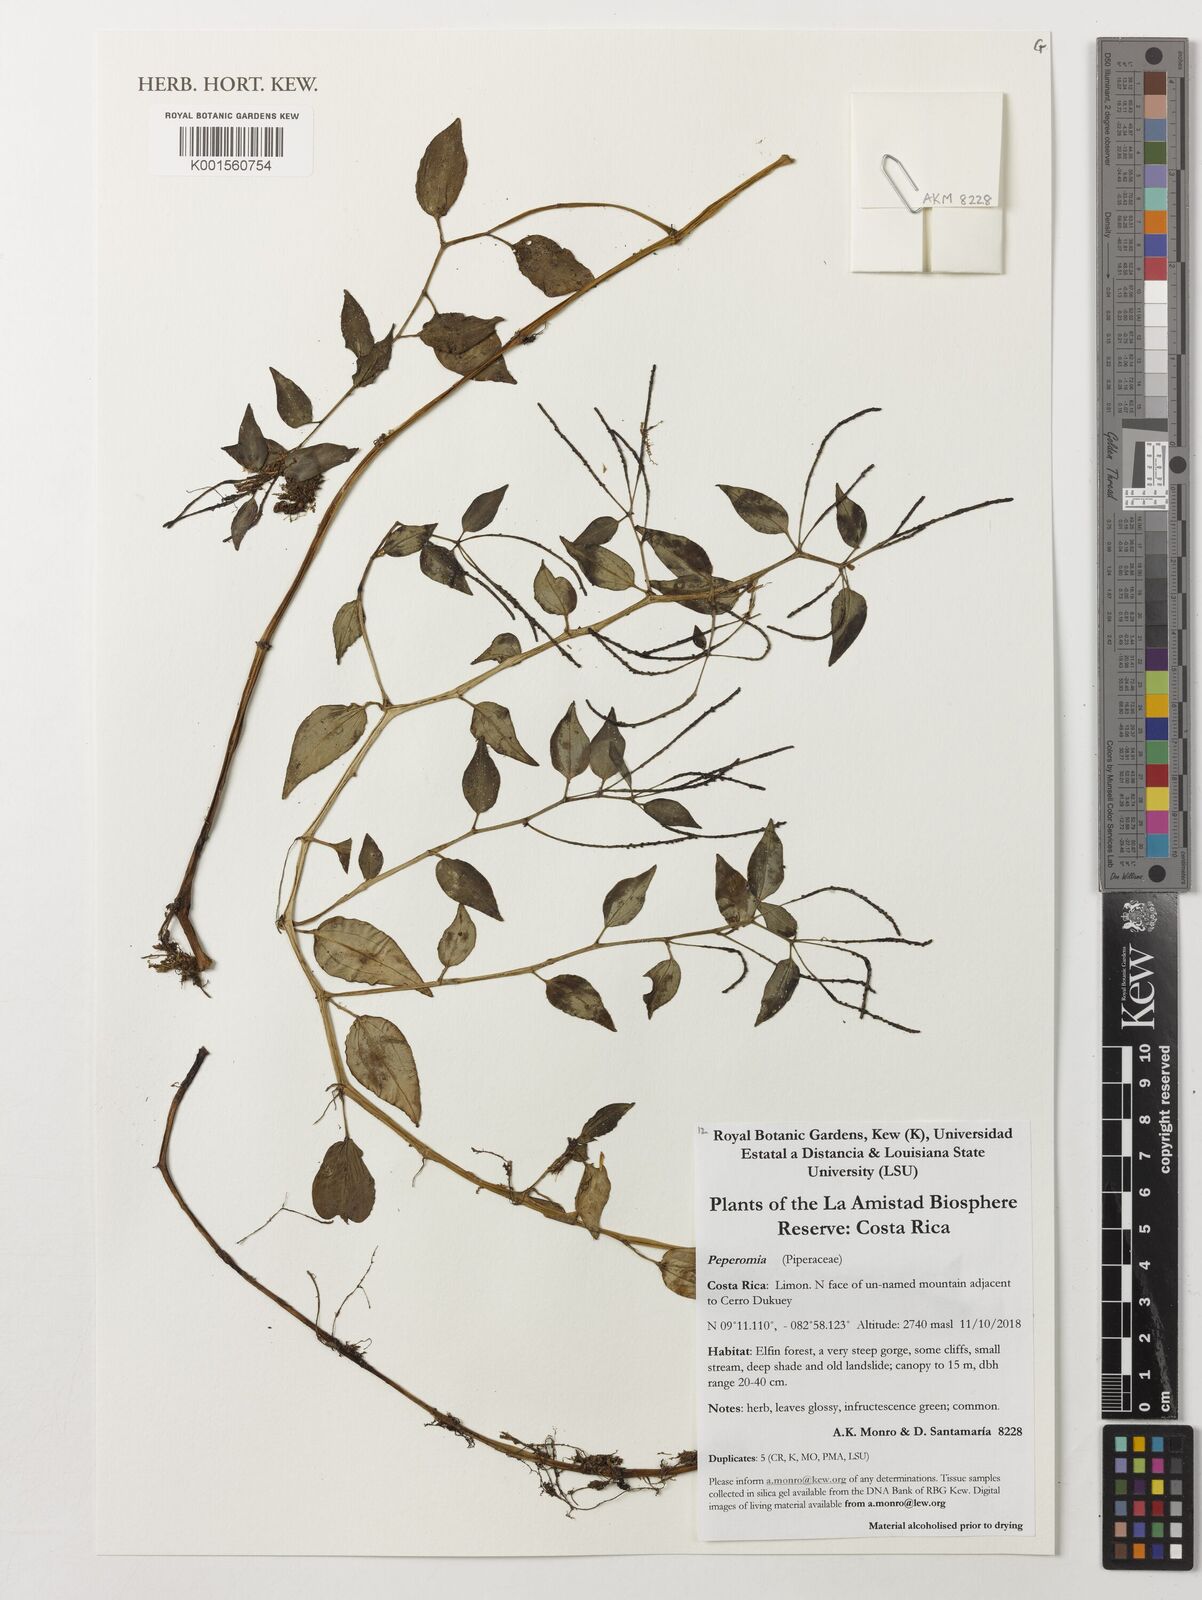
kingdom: Plantae
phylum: Tracheophyta
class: Magnoliopsida
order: Piperales
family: Piperaceae
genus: Peperomia
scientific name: Peperomia
